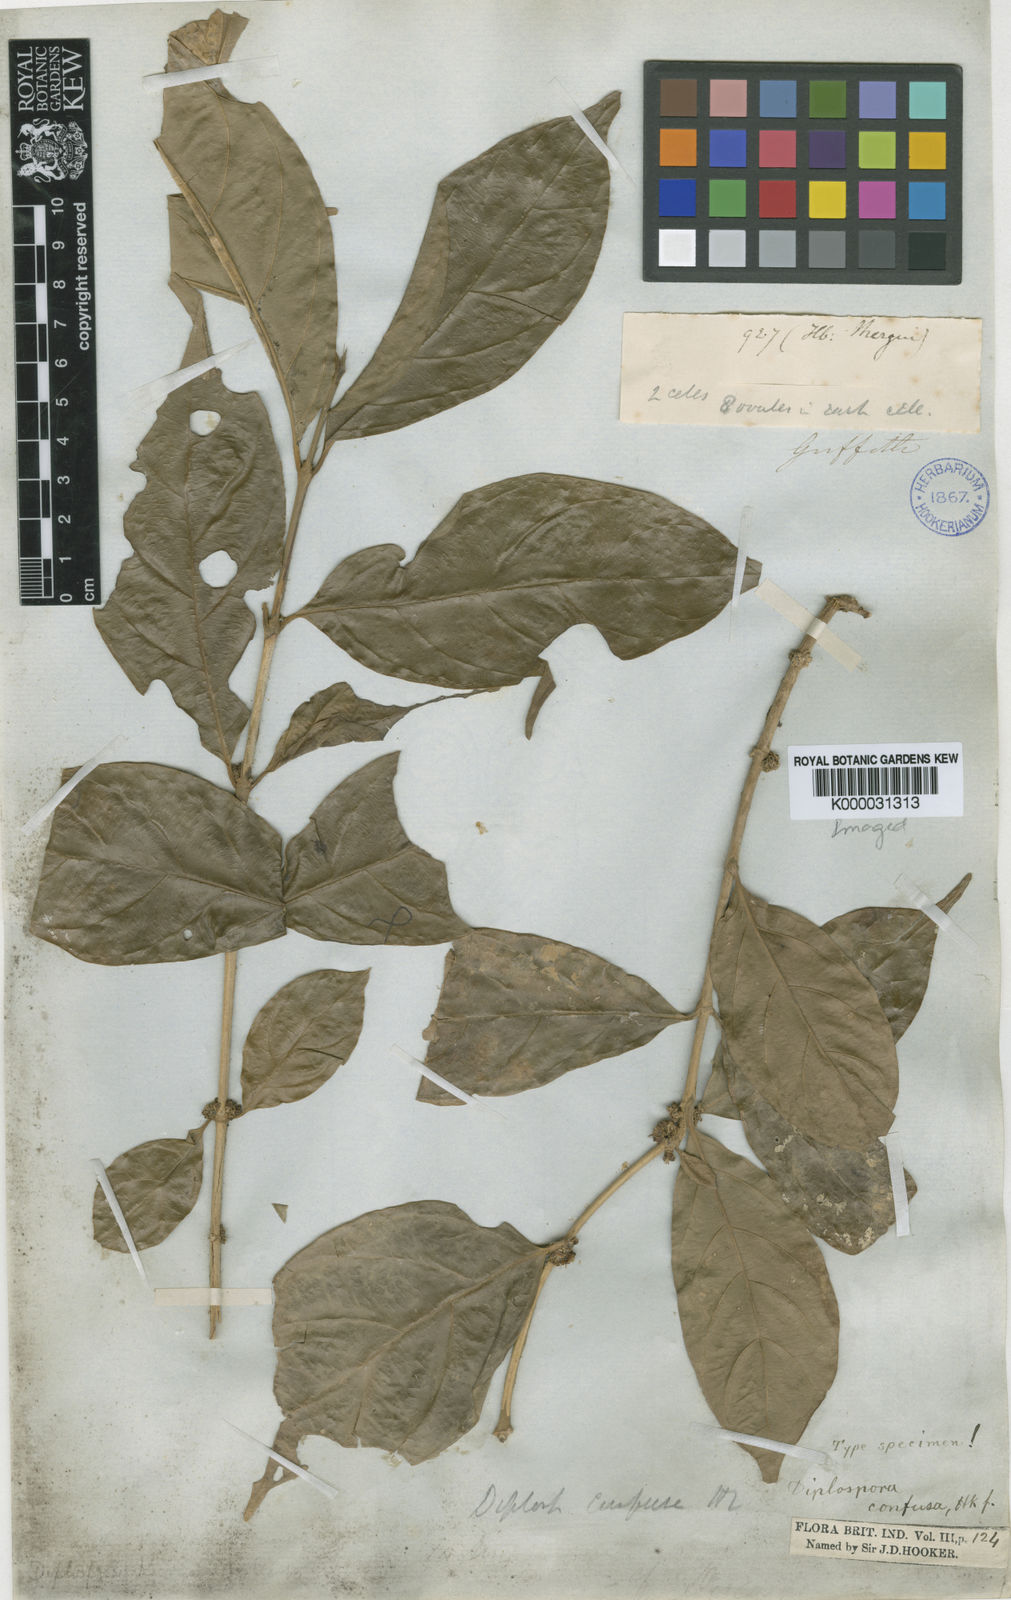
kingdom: Plantae
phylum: Tracheophyta
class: Magnoliopsida
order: Gentianales
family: Rubiaceae
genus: Discospermum
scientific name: Discospermum abnorme
